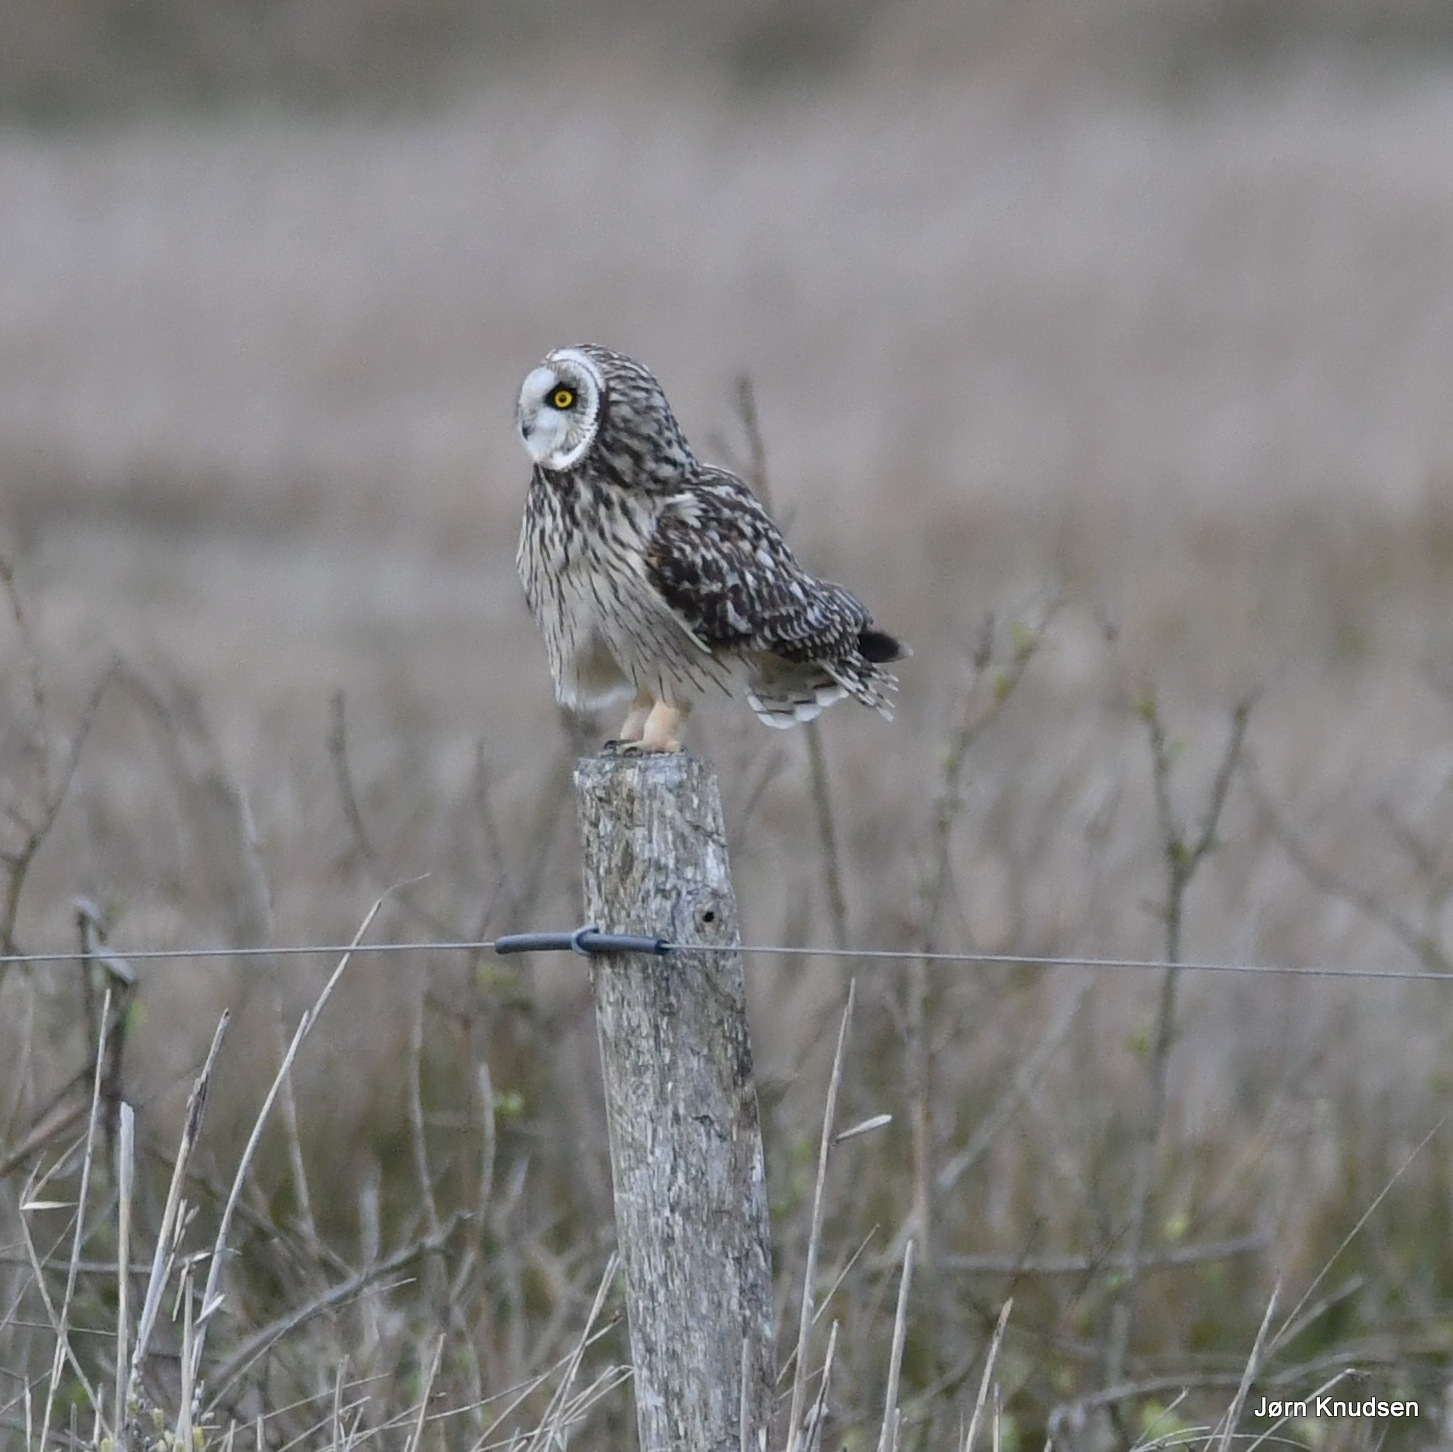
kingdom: Animalia
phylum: Chordata
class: Aves
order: Strigiformes
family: Strigidae
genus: Asio
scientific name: Asio flammeus
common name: Mosehornugle
